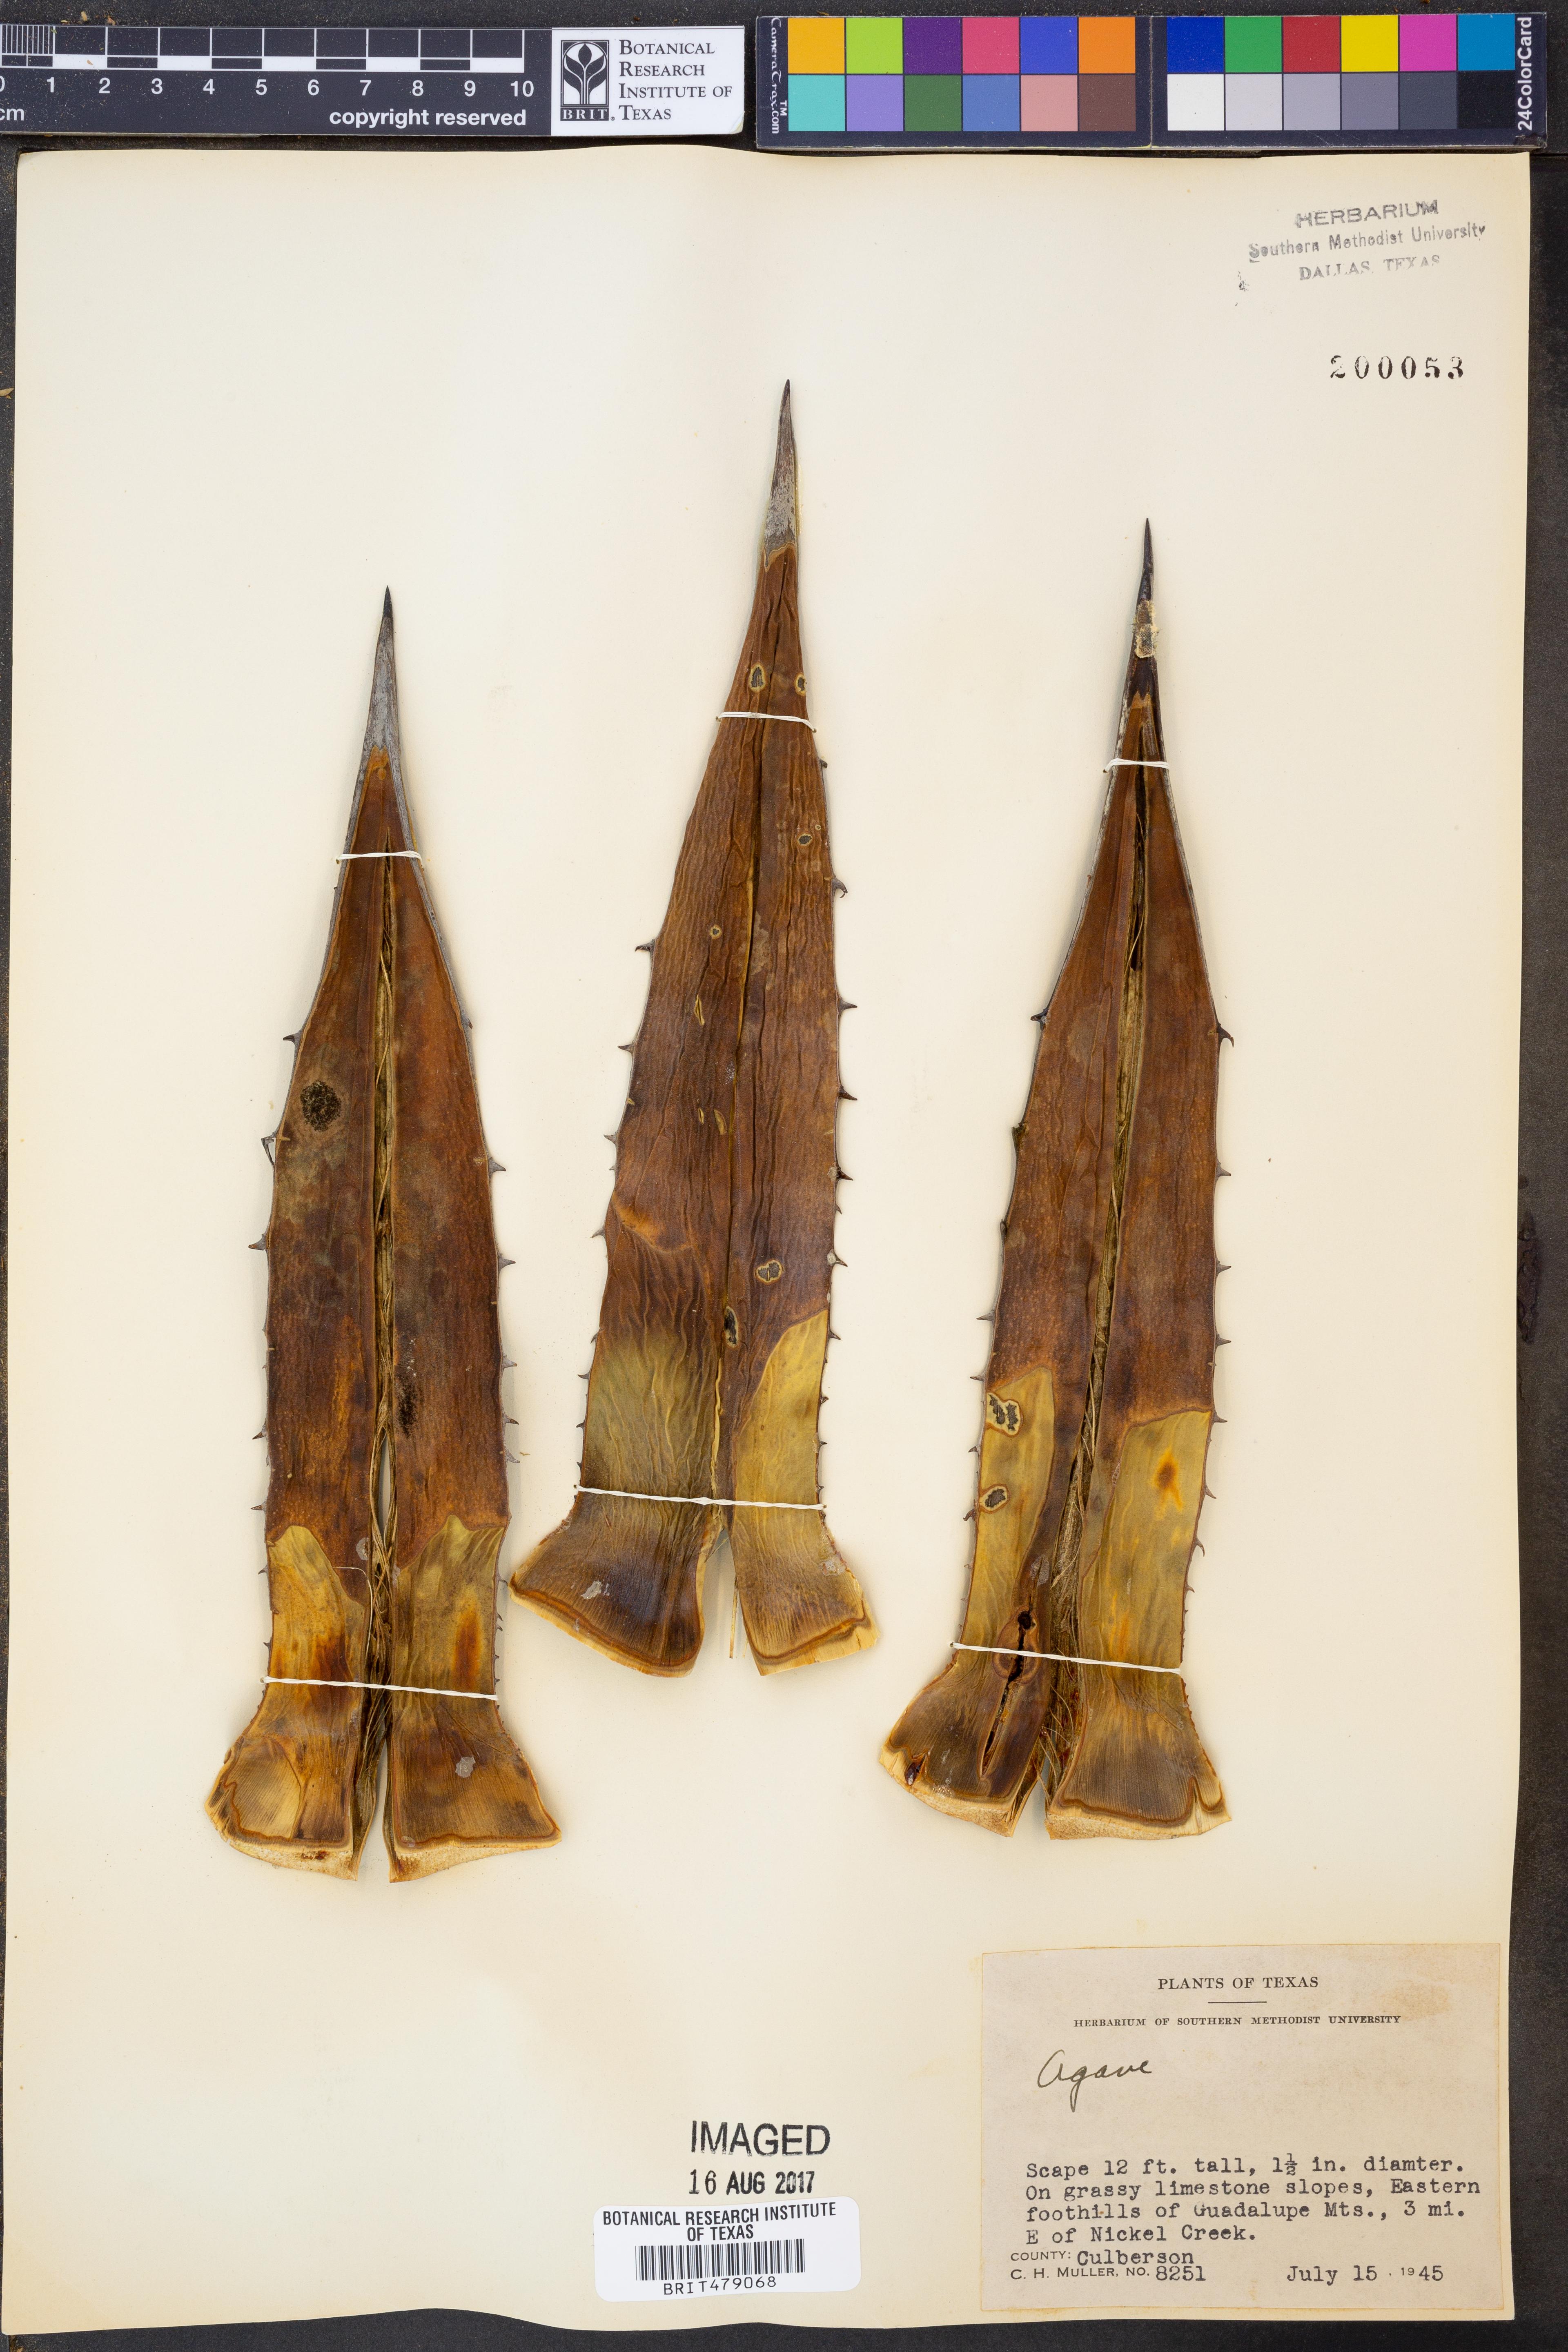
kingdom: Plantae
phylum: Tracheophyta
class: Liliopsida
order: Asparagales
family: Asparagaceae
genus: Agave
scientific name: Agave
